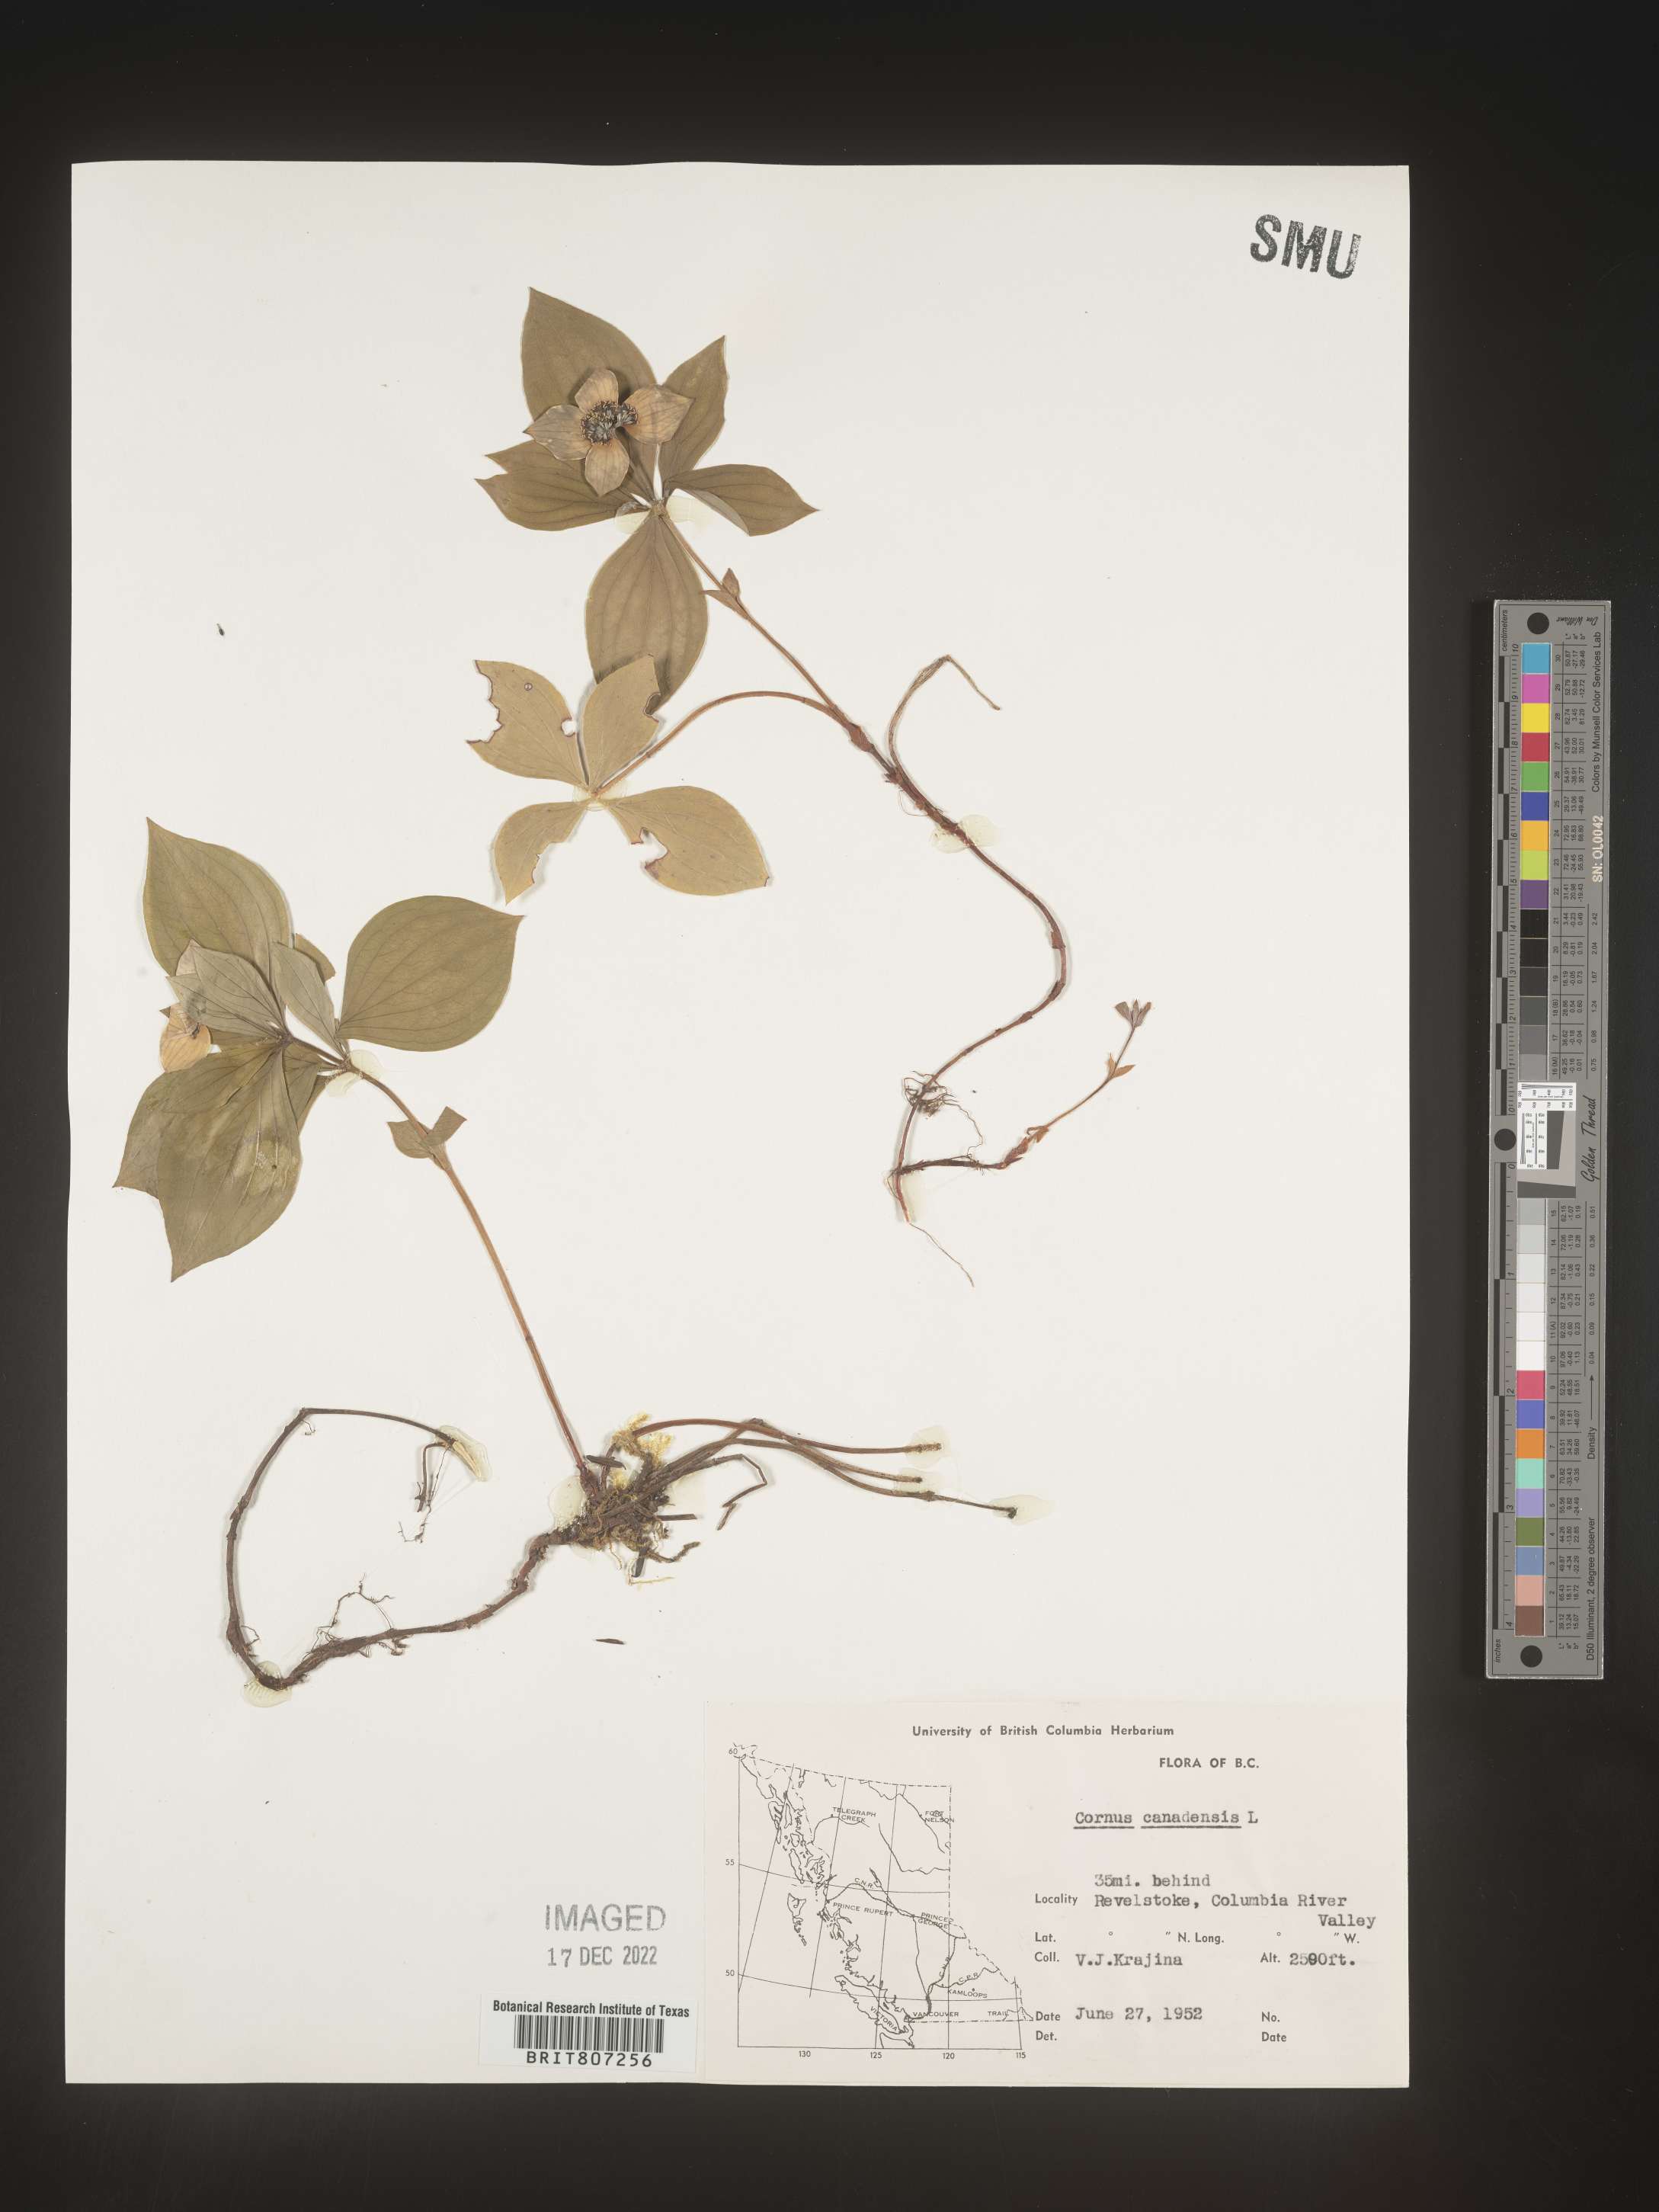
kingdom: Plantae
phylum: Tracheophyta
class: Magnoliopsida
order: Cornales
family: Cornaceae
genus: Cornus
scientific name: Cornus canadensis
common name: Creeping dogwood
